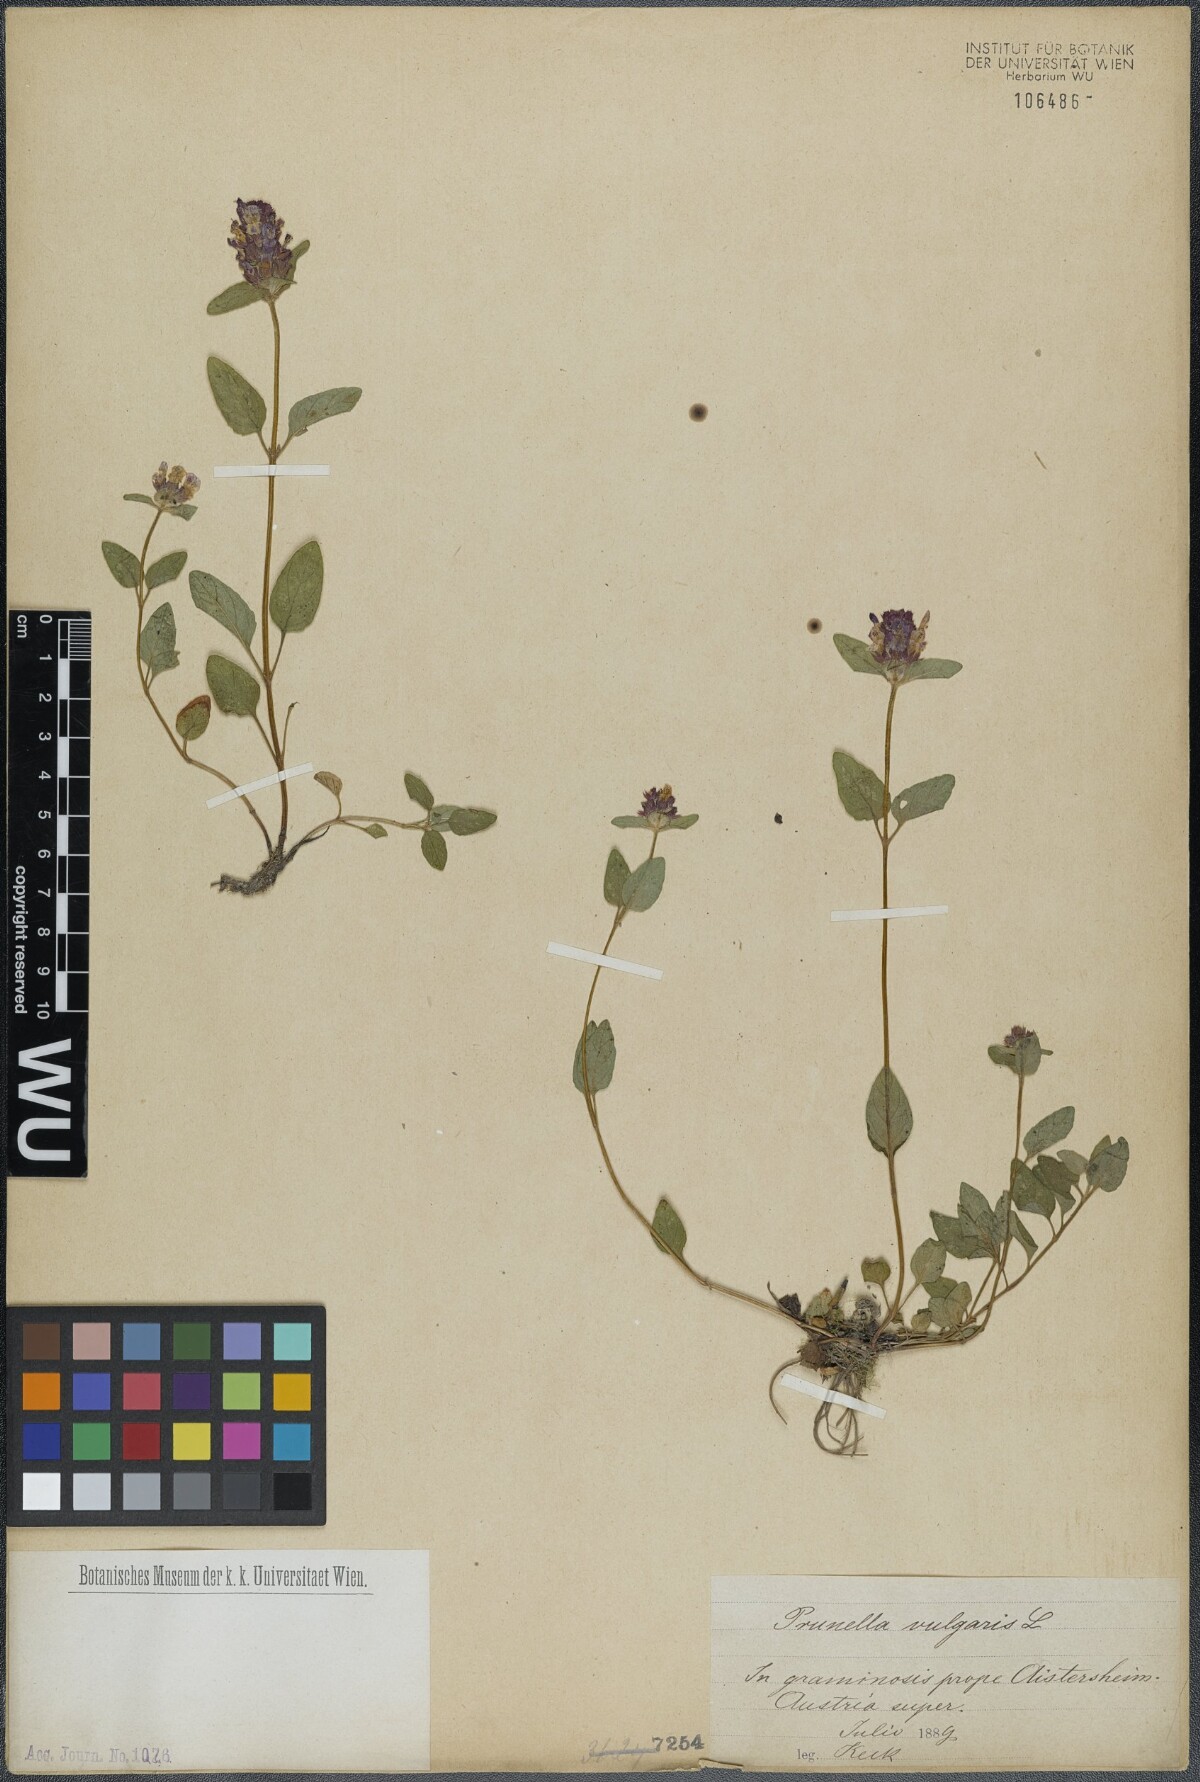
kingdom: Plantae
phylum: Tracheophyta
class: Magnoliopsida
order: Lamiales
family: Lamiaceae
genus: Prunella
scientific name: Prunella vulgaris
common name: Heal-all
